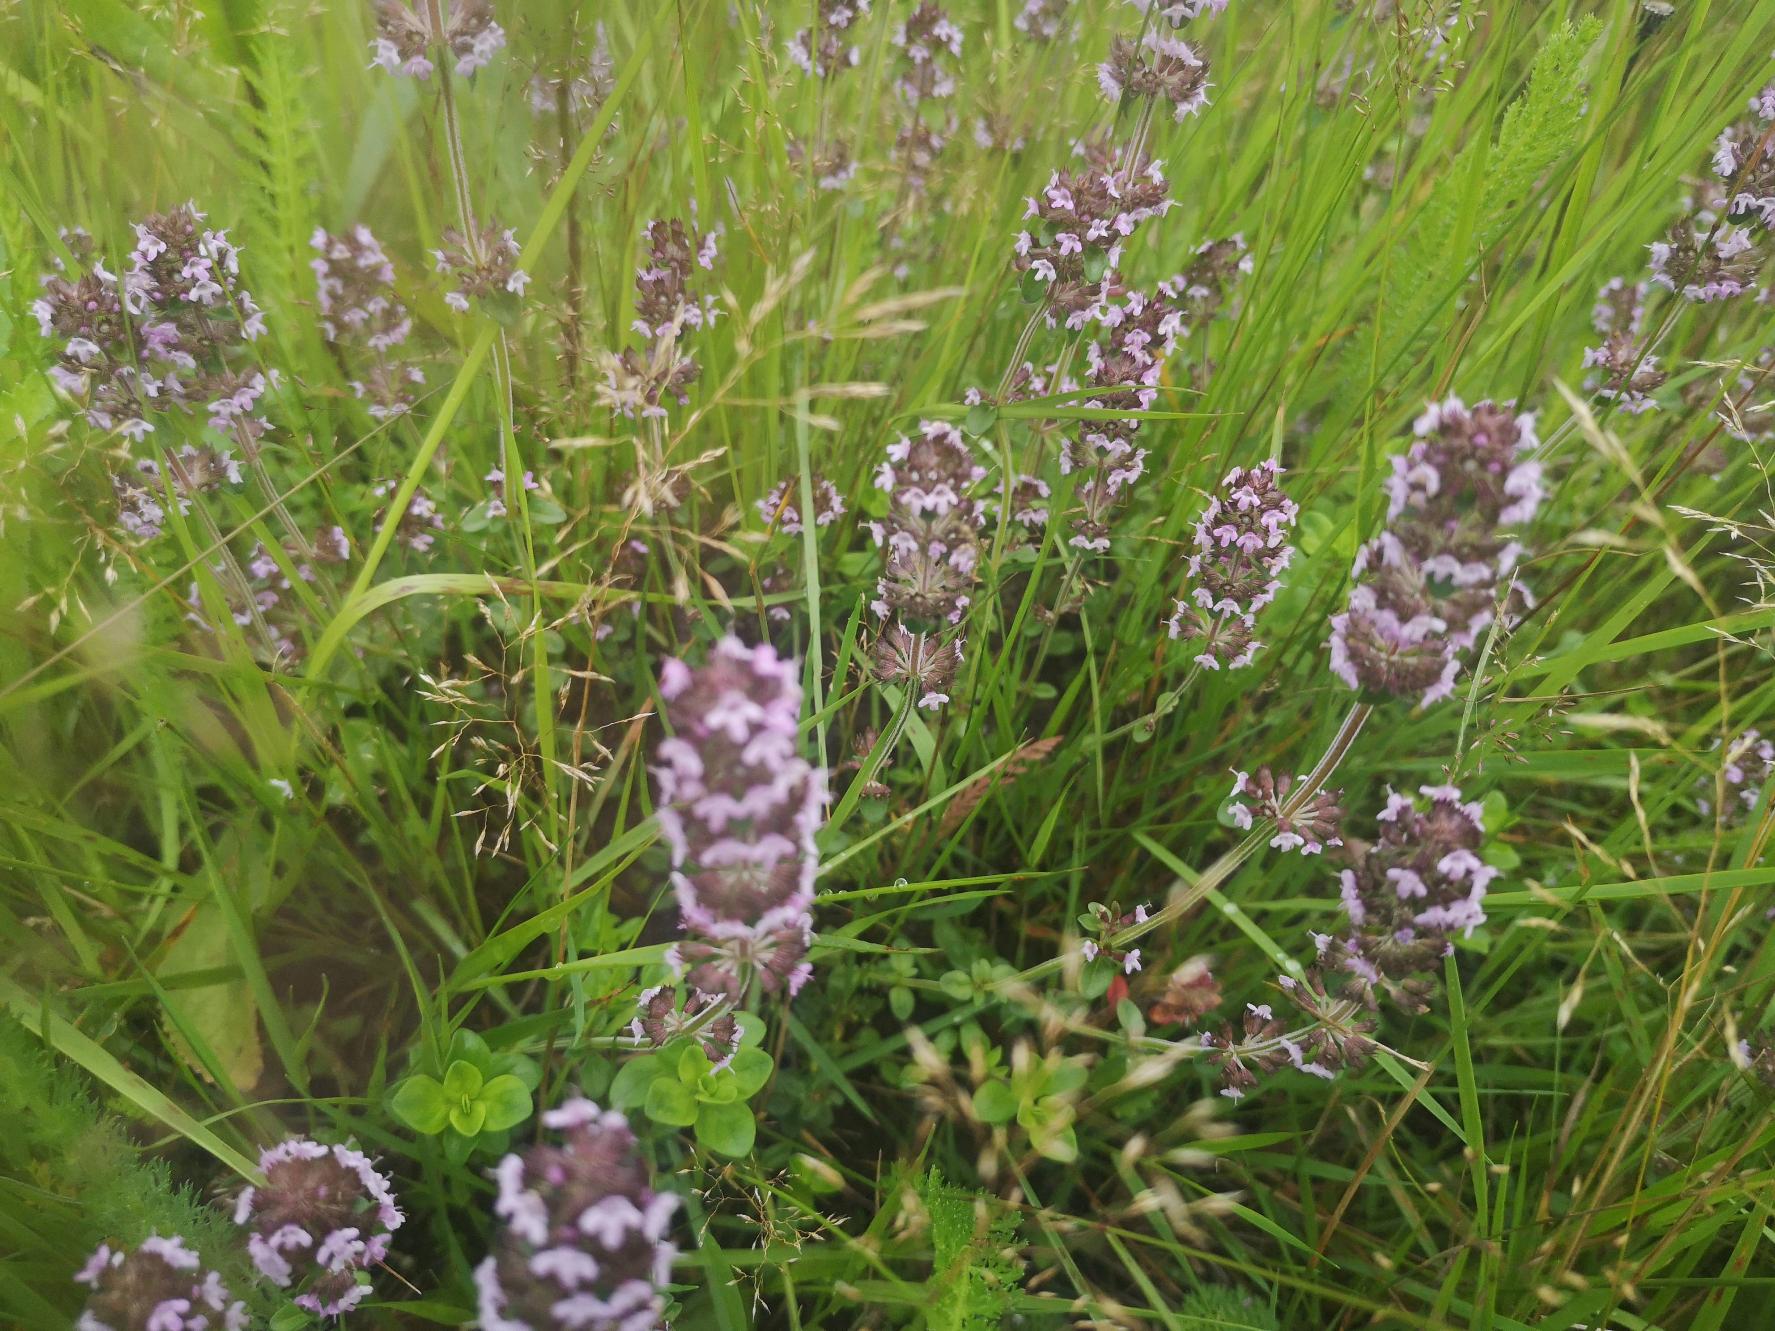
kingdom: Plantae
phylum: Tracheophyta
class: Magnoliopsida
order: Lamiales
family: Lamiaceae
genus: Thymus
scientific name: Thymus pulegioides
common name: Bredbladet timian
